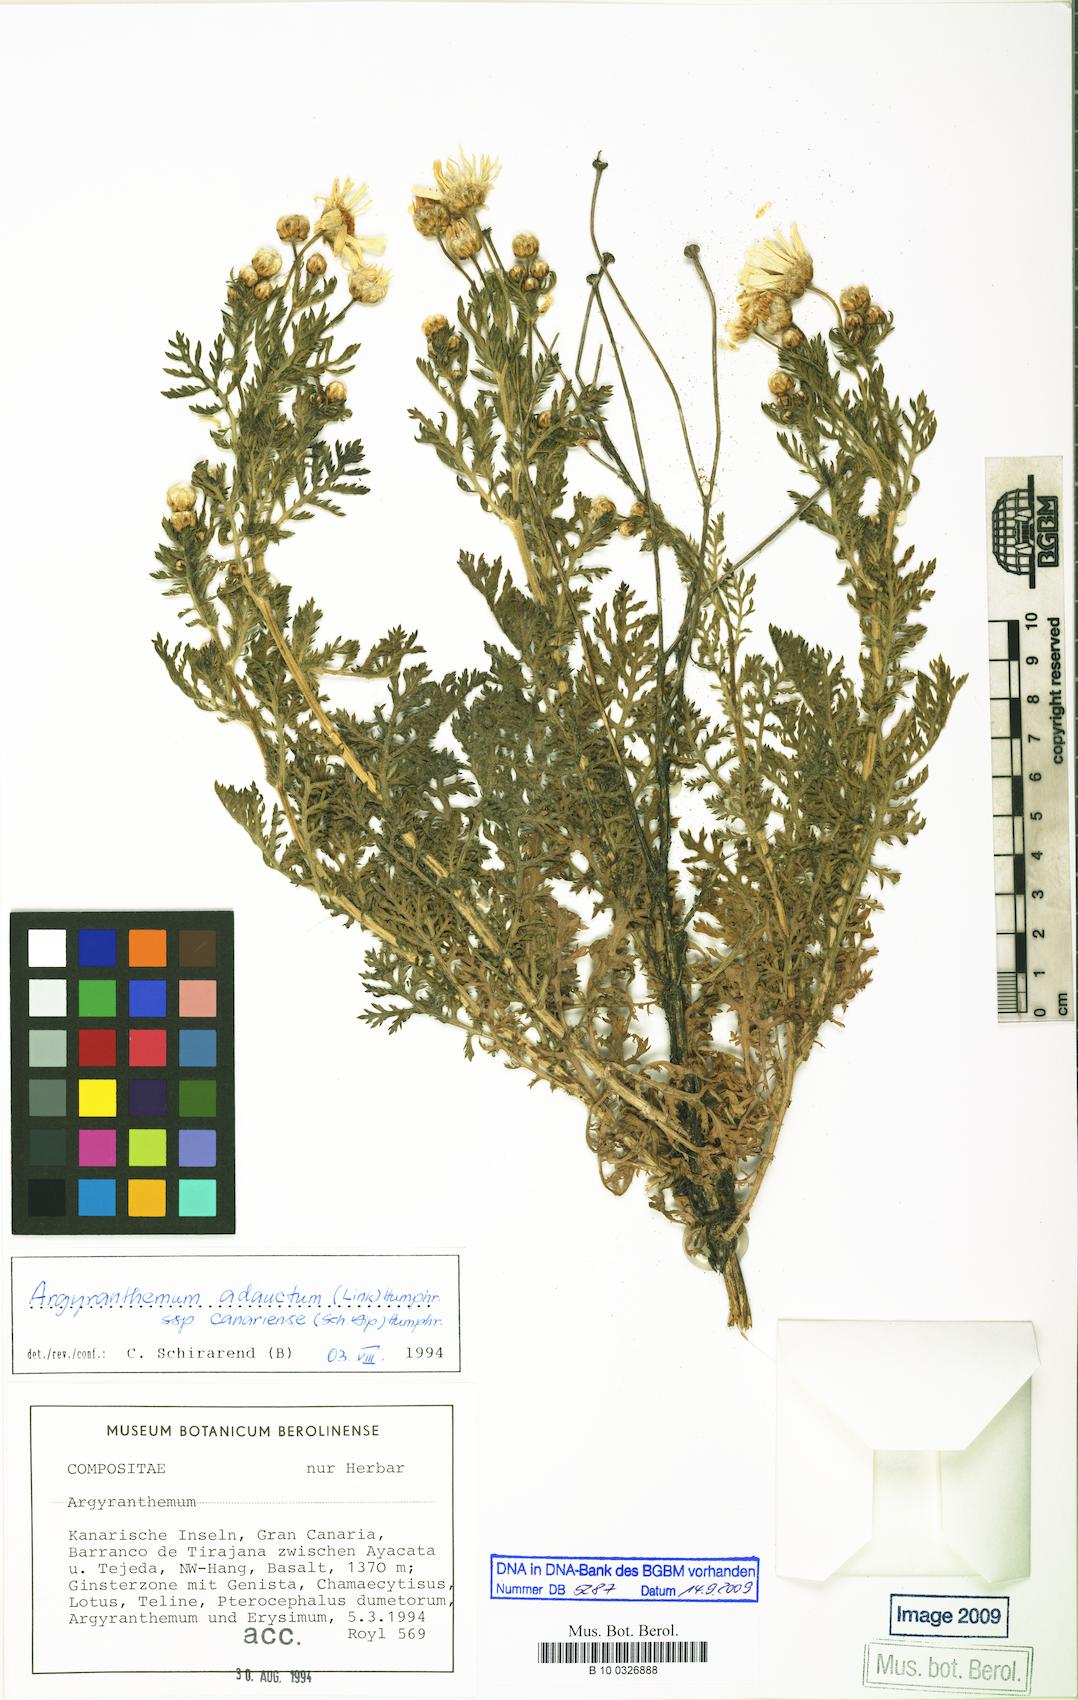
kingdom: Plantae
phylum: Tracheophyta
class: Magnoliopsida
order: Asterales
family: Asteraceae
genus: Argyranthemum
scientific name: Argyranthemum adauctum
